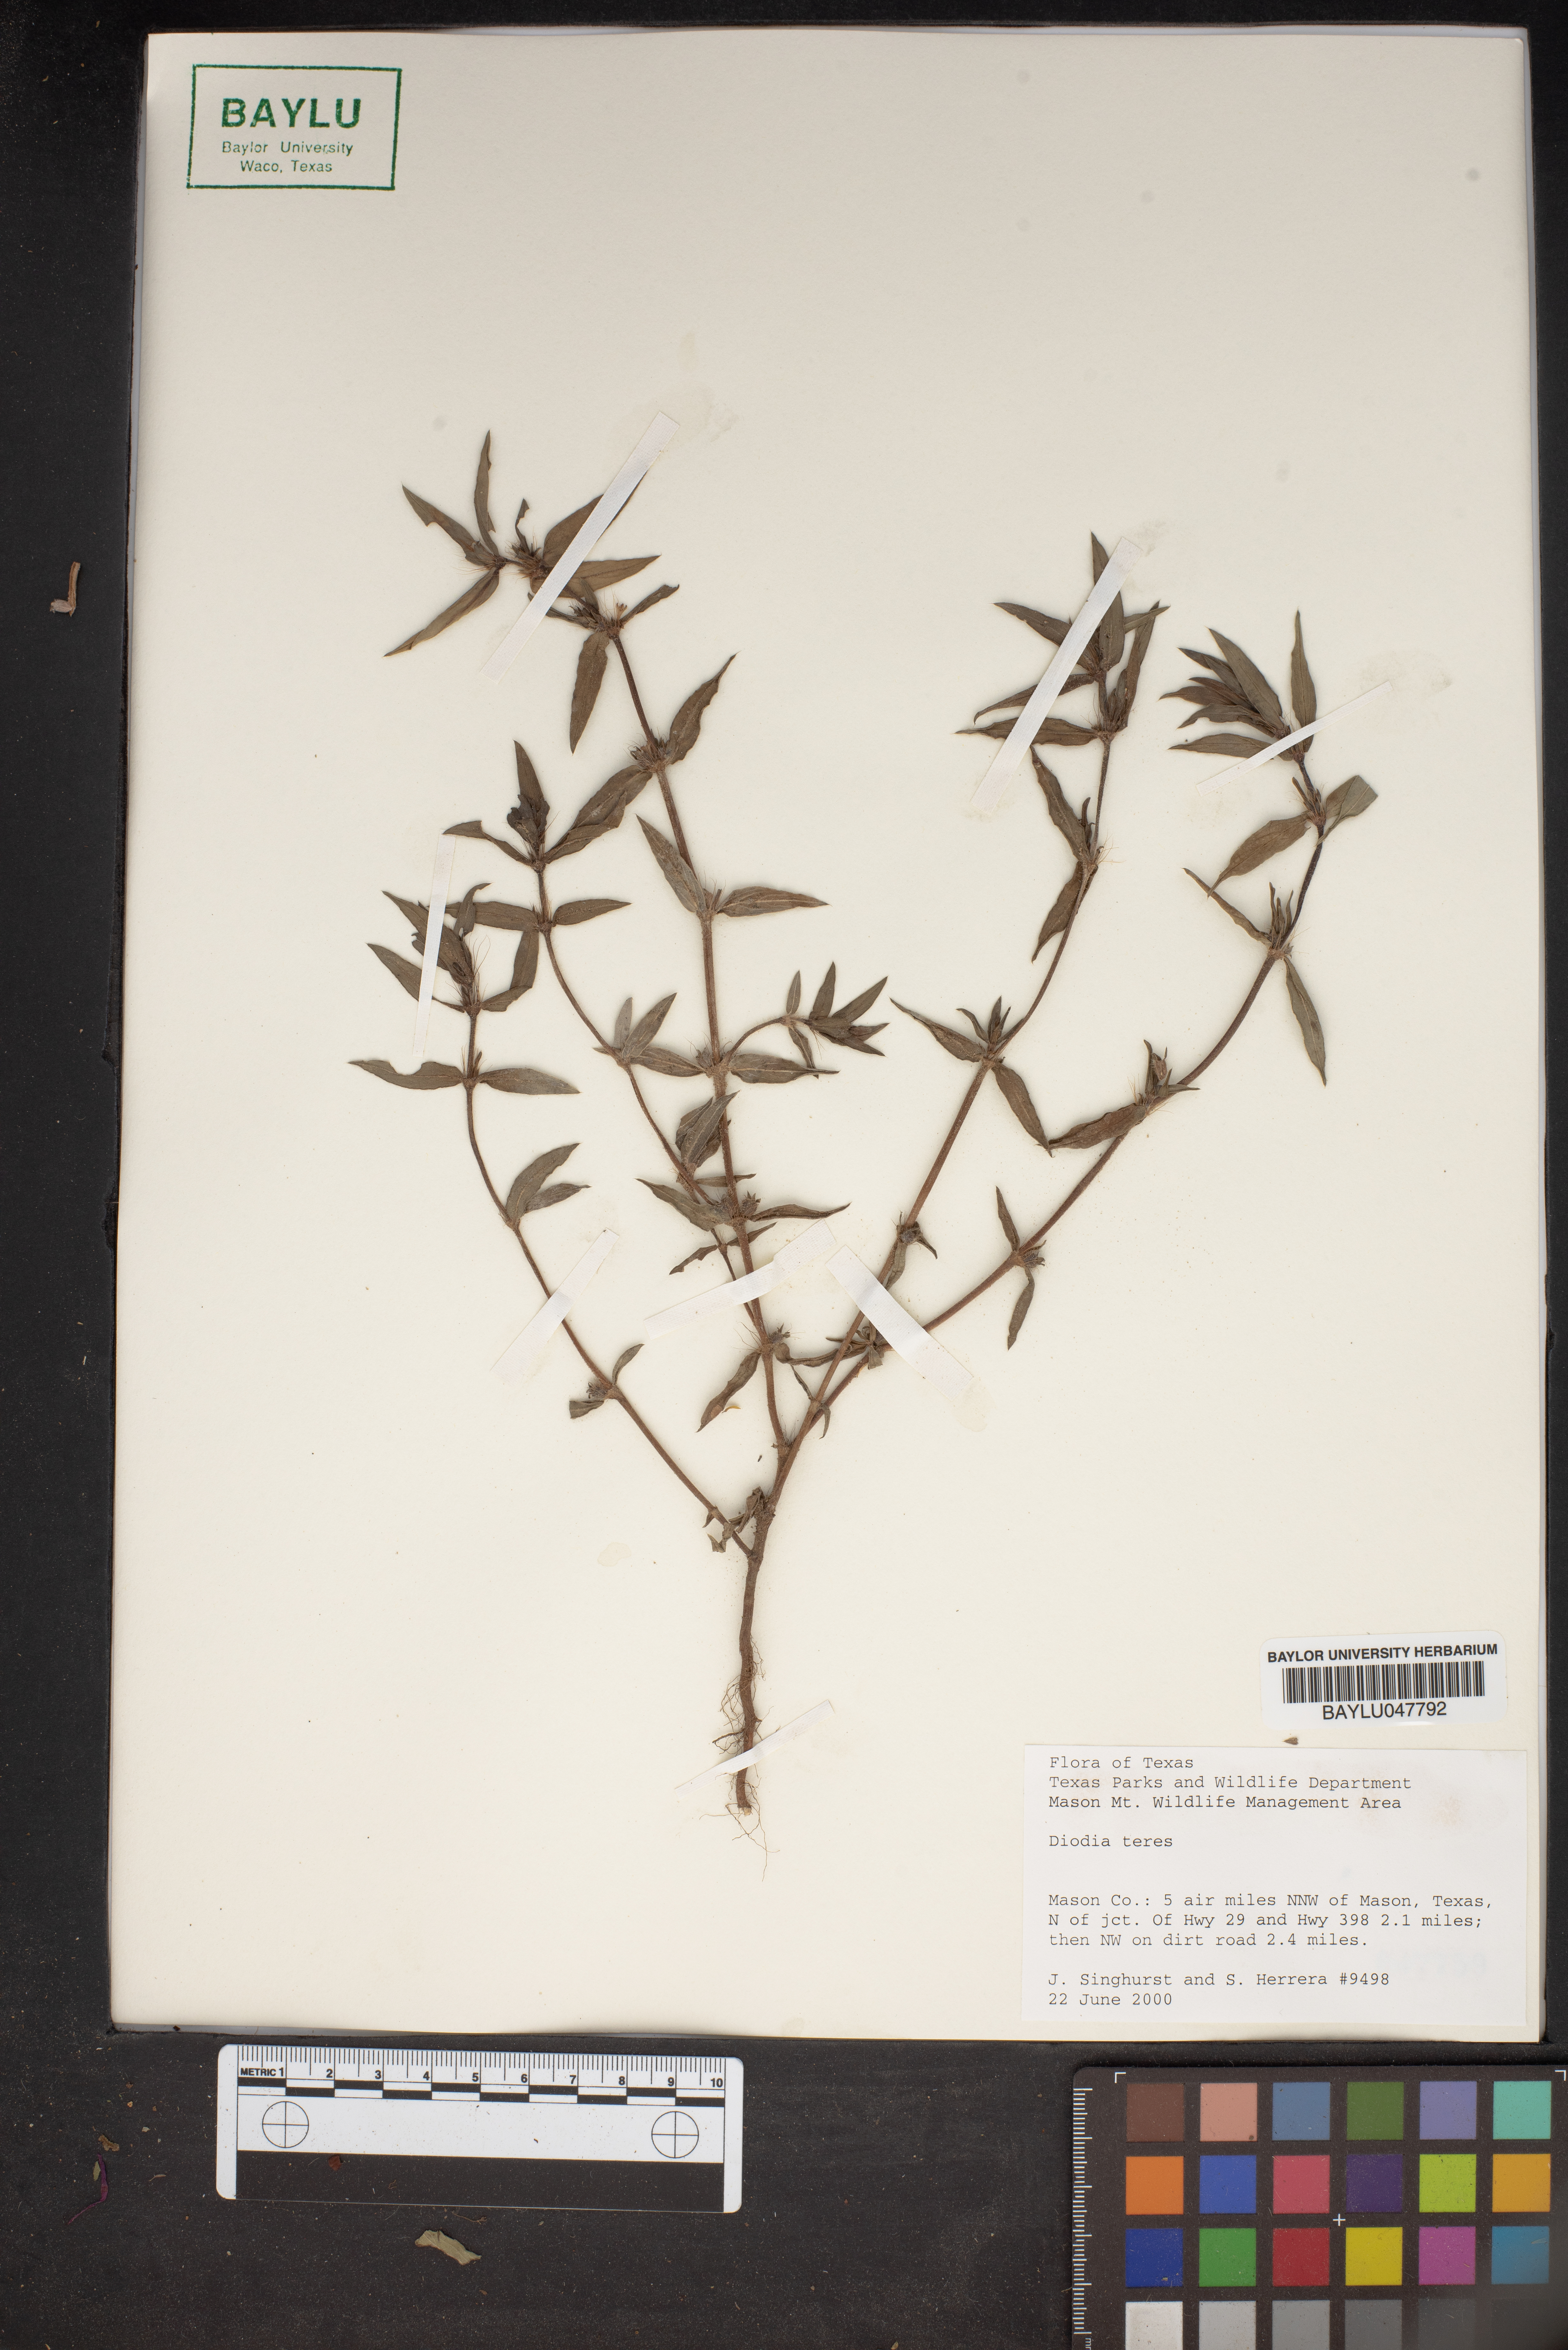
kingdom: Plantae
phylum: Tracheophyta
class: Magnoliopsida
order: Gentianales
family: Rubiaceae
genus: Hexasepalum
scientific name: Hexasepalum teres
